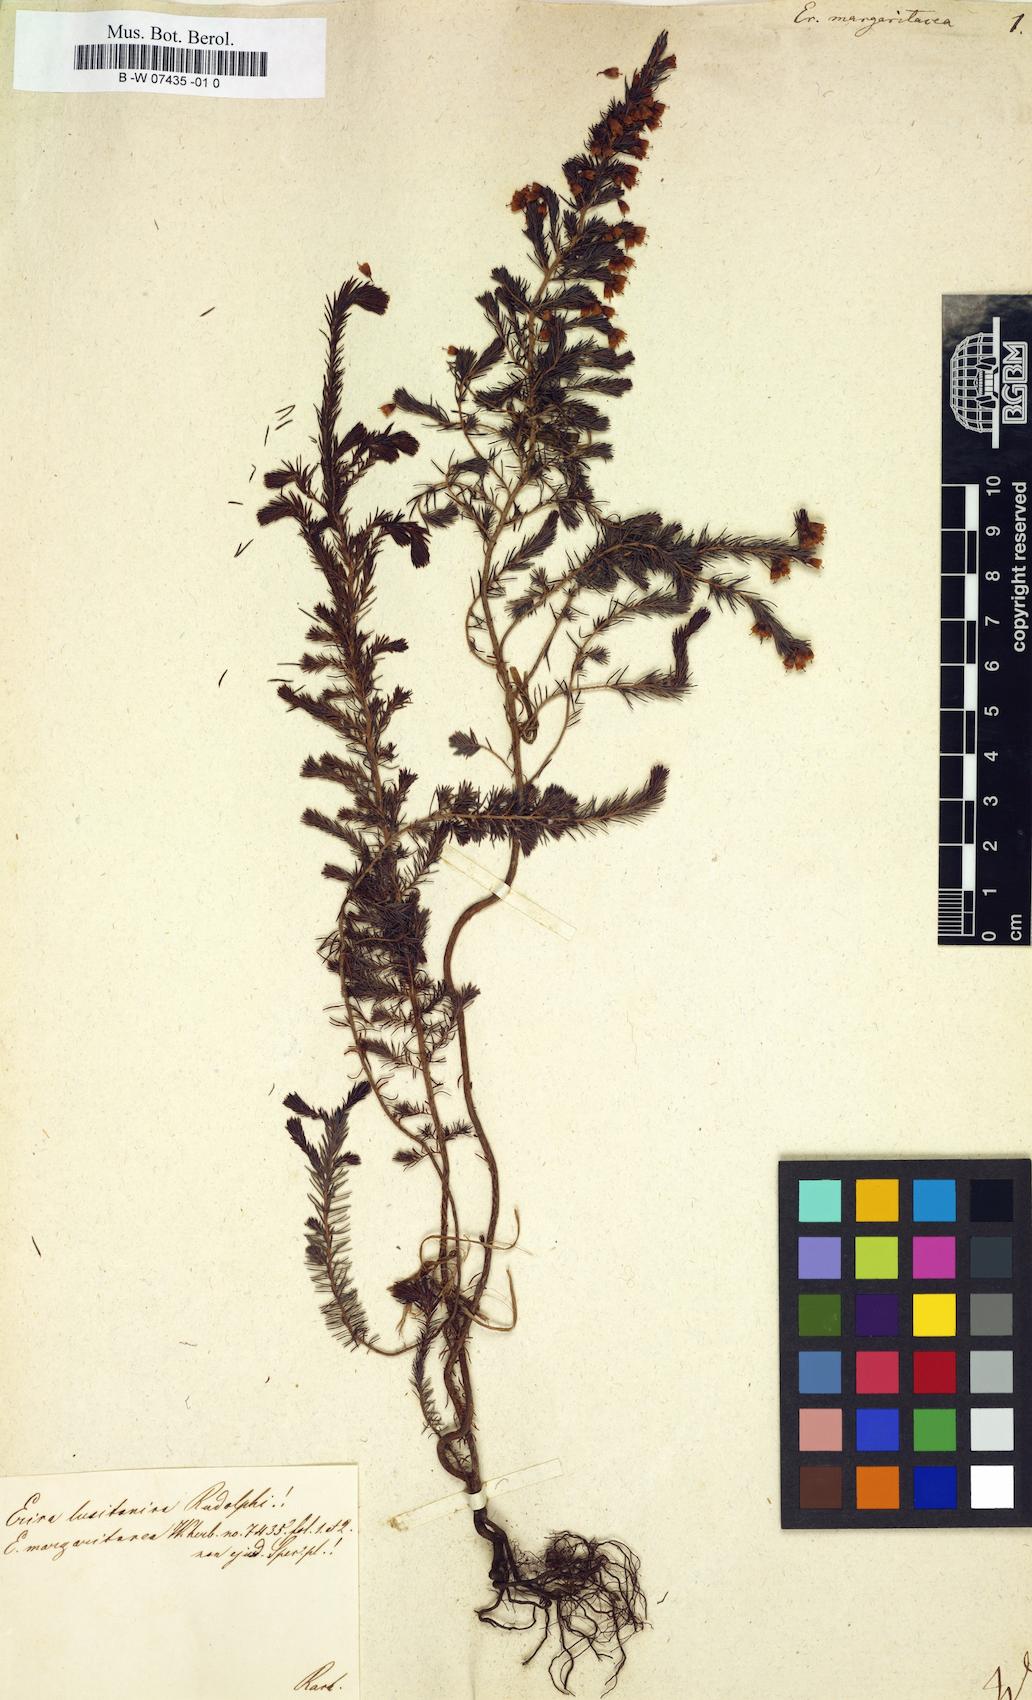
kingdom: Plantae
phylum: Tracheophyta
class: Magnoliopsida
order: Ericales
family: Ericaceae
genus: Erica
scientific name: Erica margaritacea
